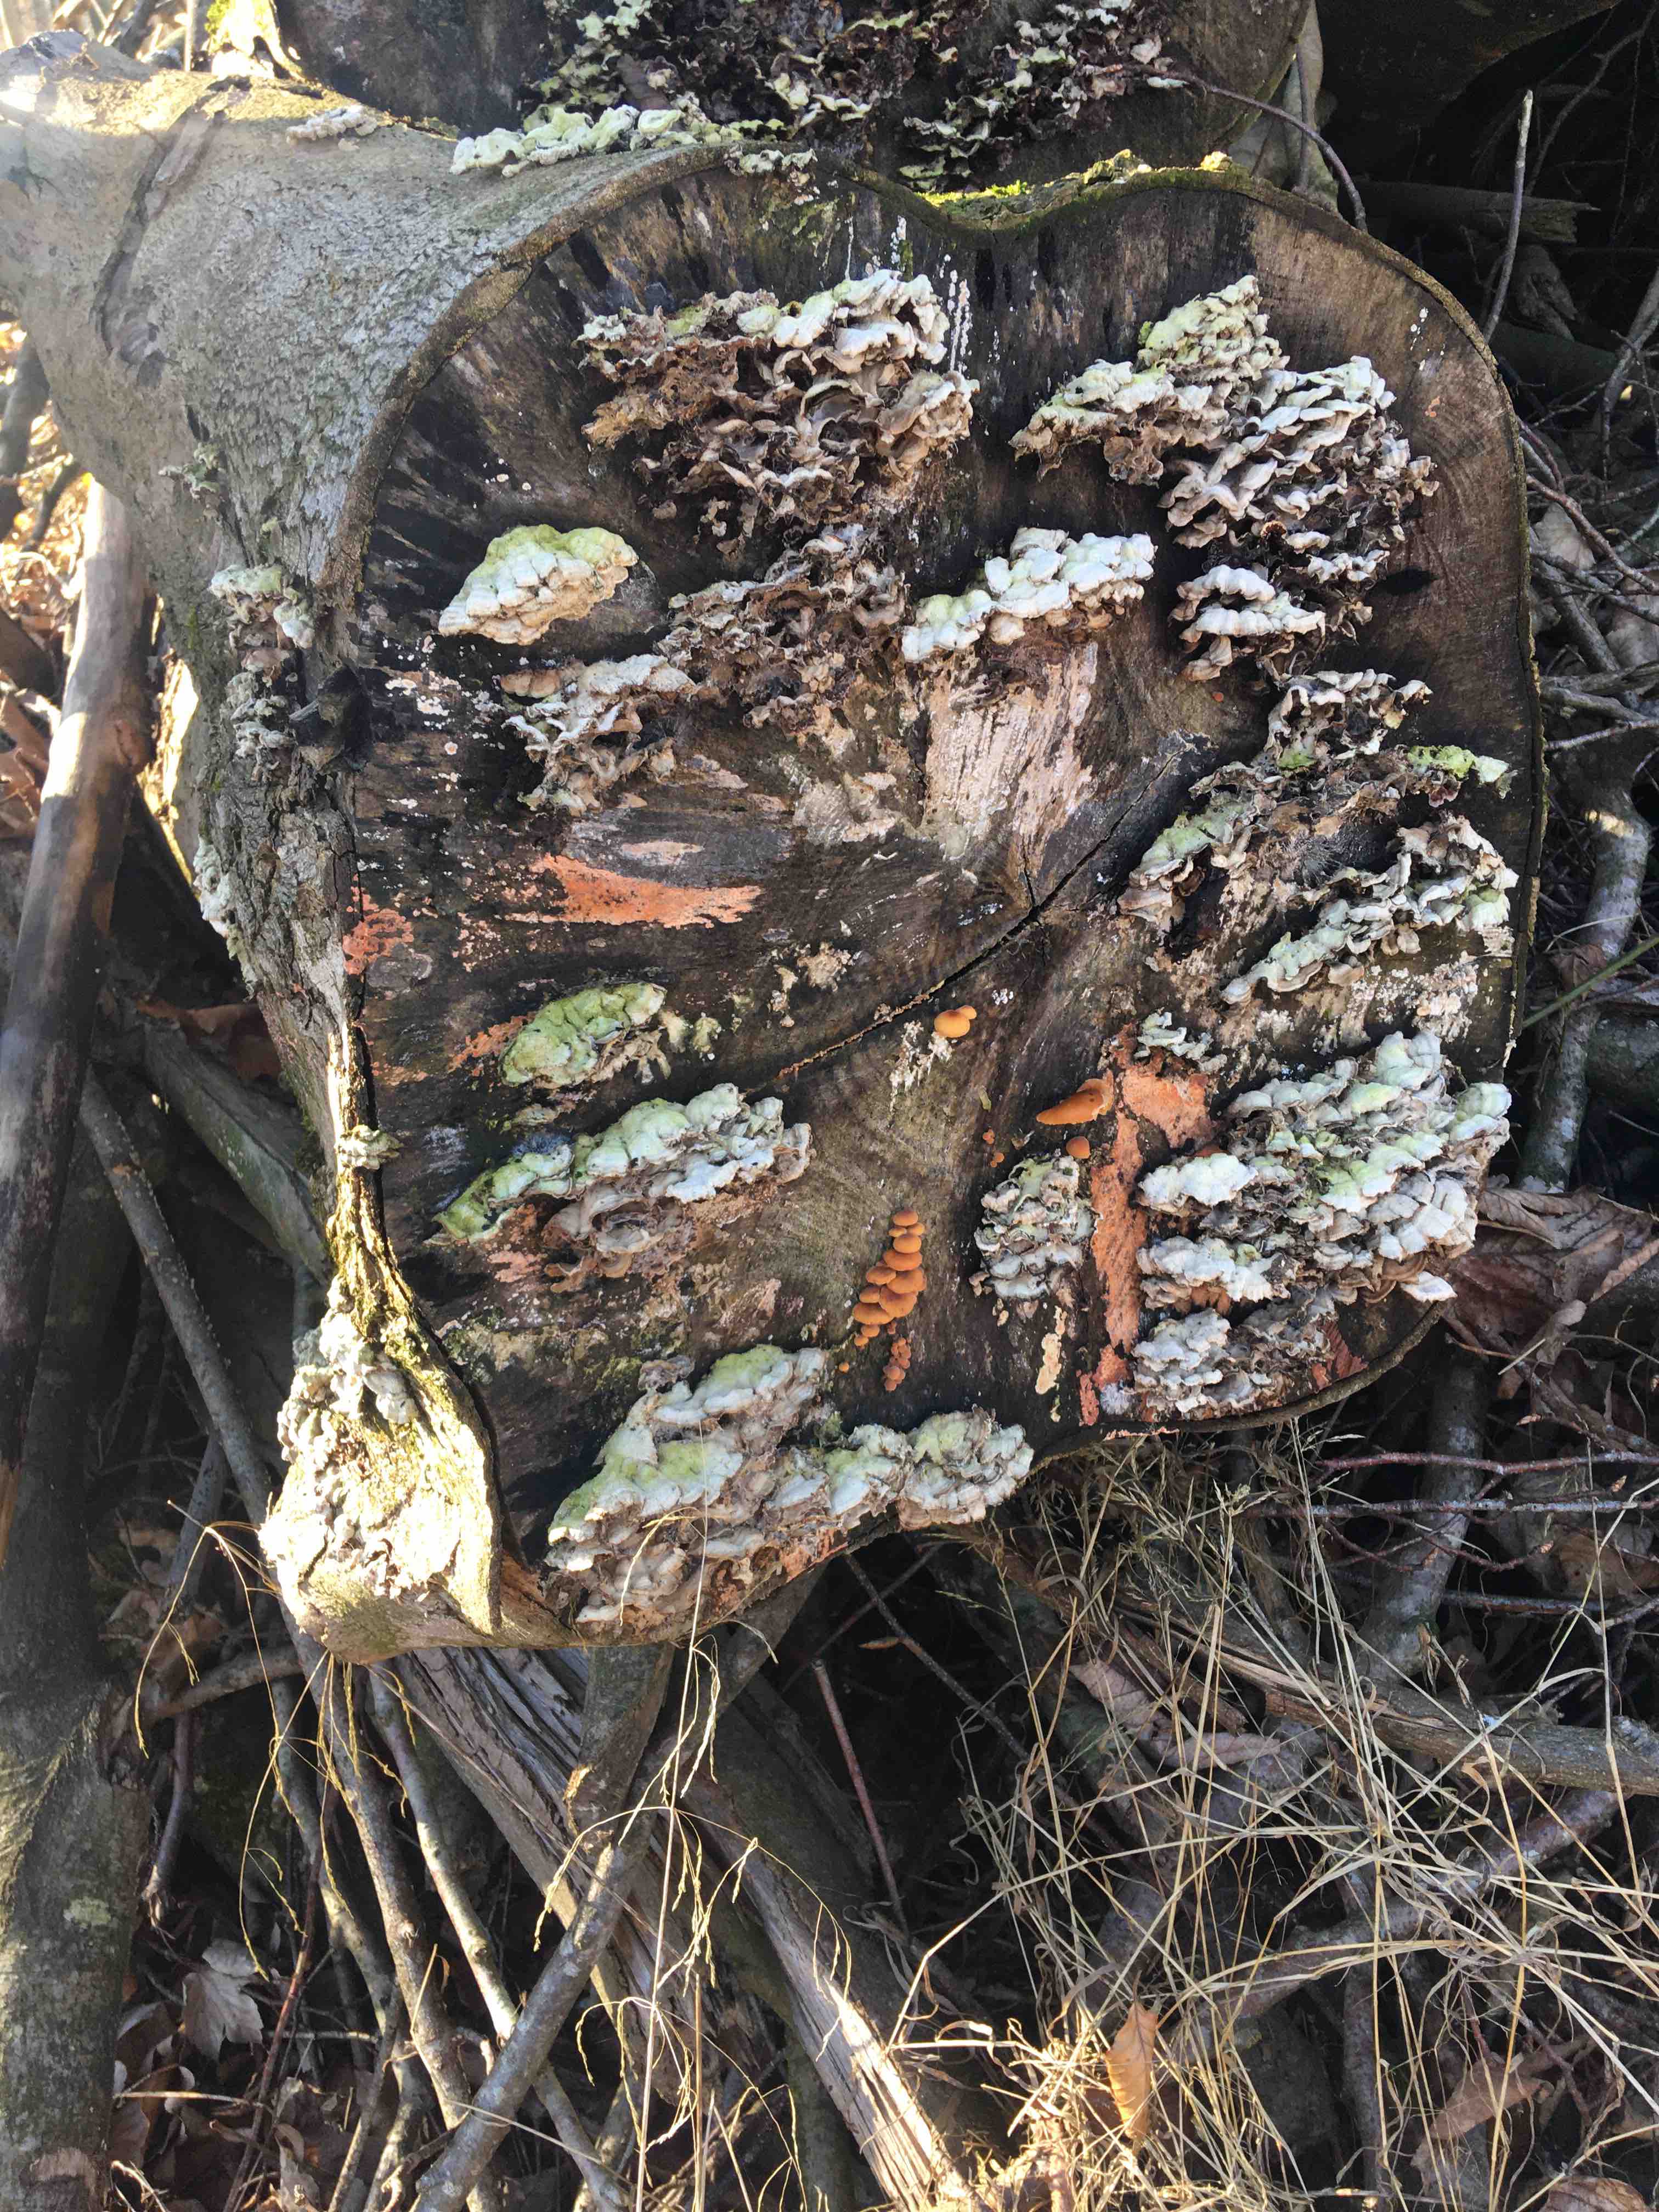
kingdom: Fungi
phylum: Basidiomycota
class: Agaricomycetes
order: Agaricales
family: Physalacriaceae
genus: Flammulina
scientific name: Flammulina velutipes
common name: gul fløjlsfod
